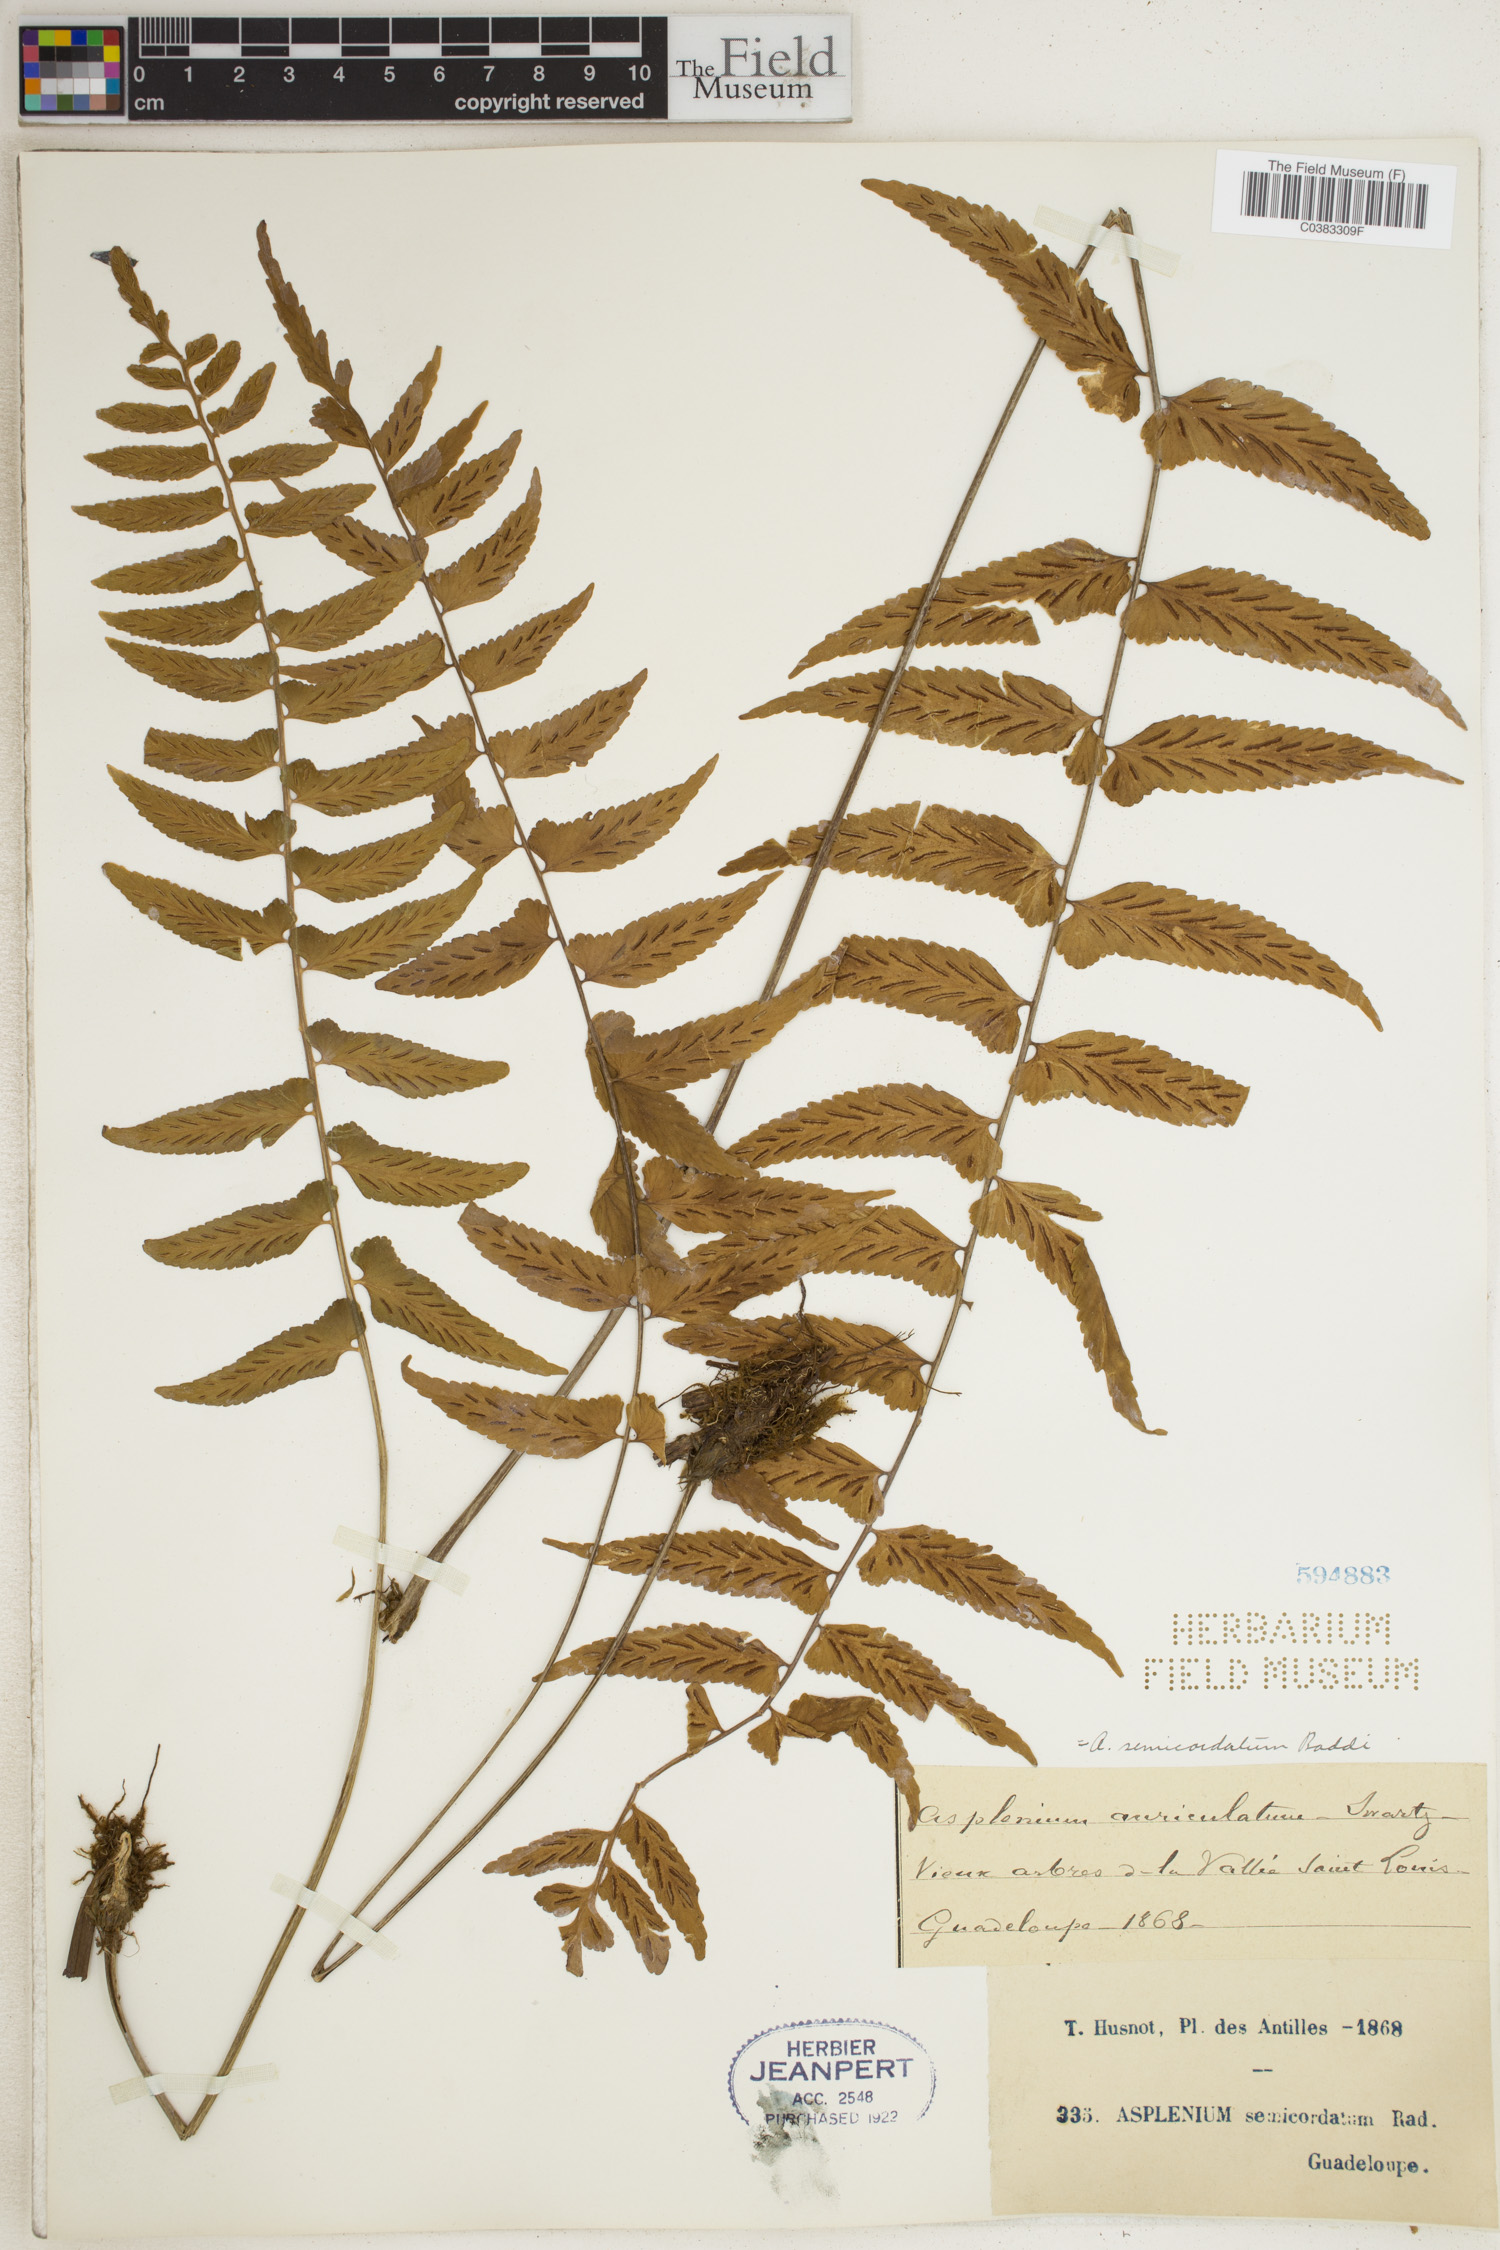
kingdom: Plantae
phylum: Tracheophyta
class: Polypodiopsida
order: Polypodiales
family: Aspleniaceae
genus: Asplenium
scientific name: Asplenium auriculatum
